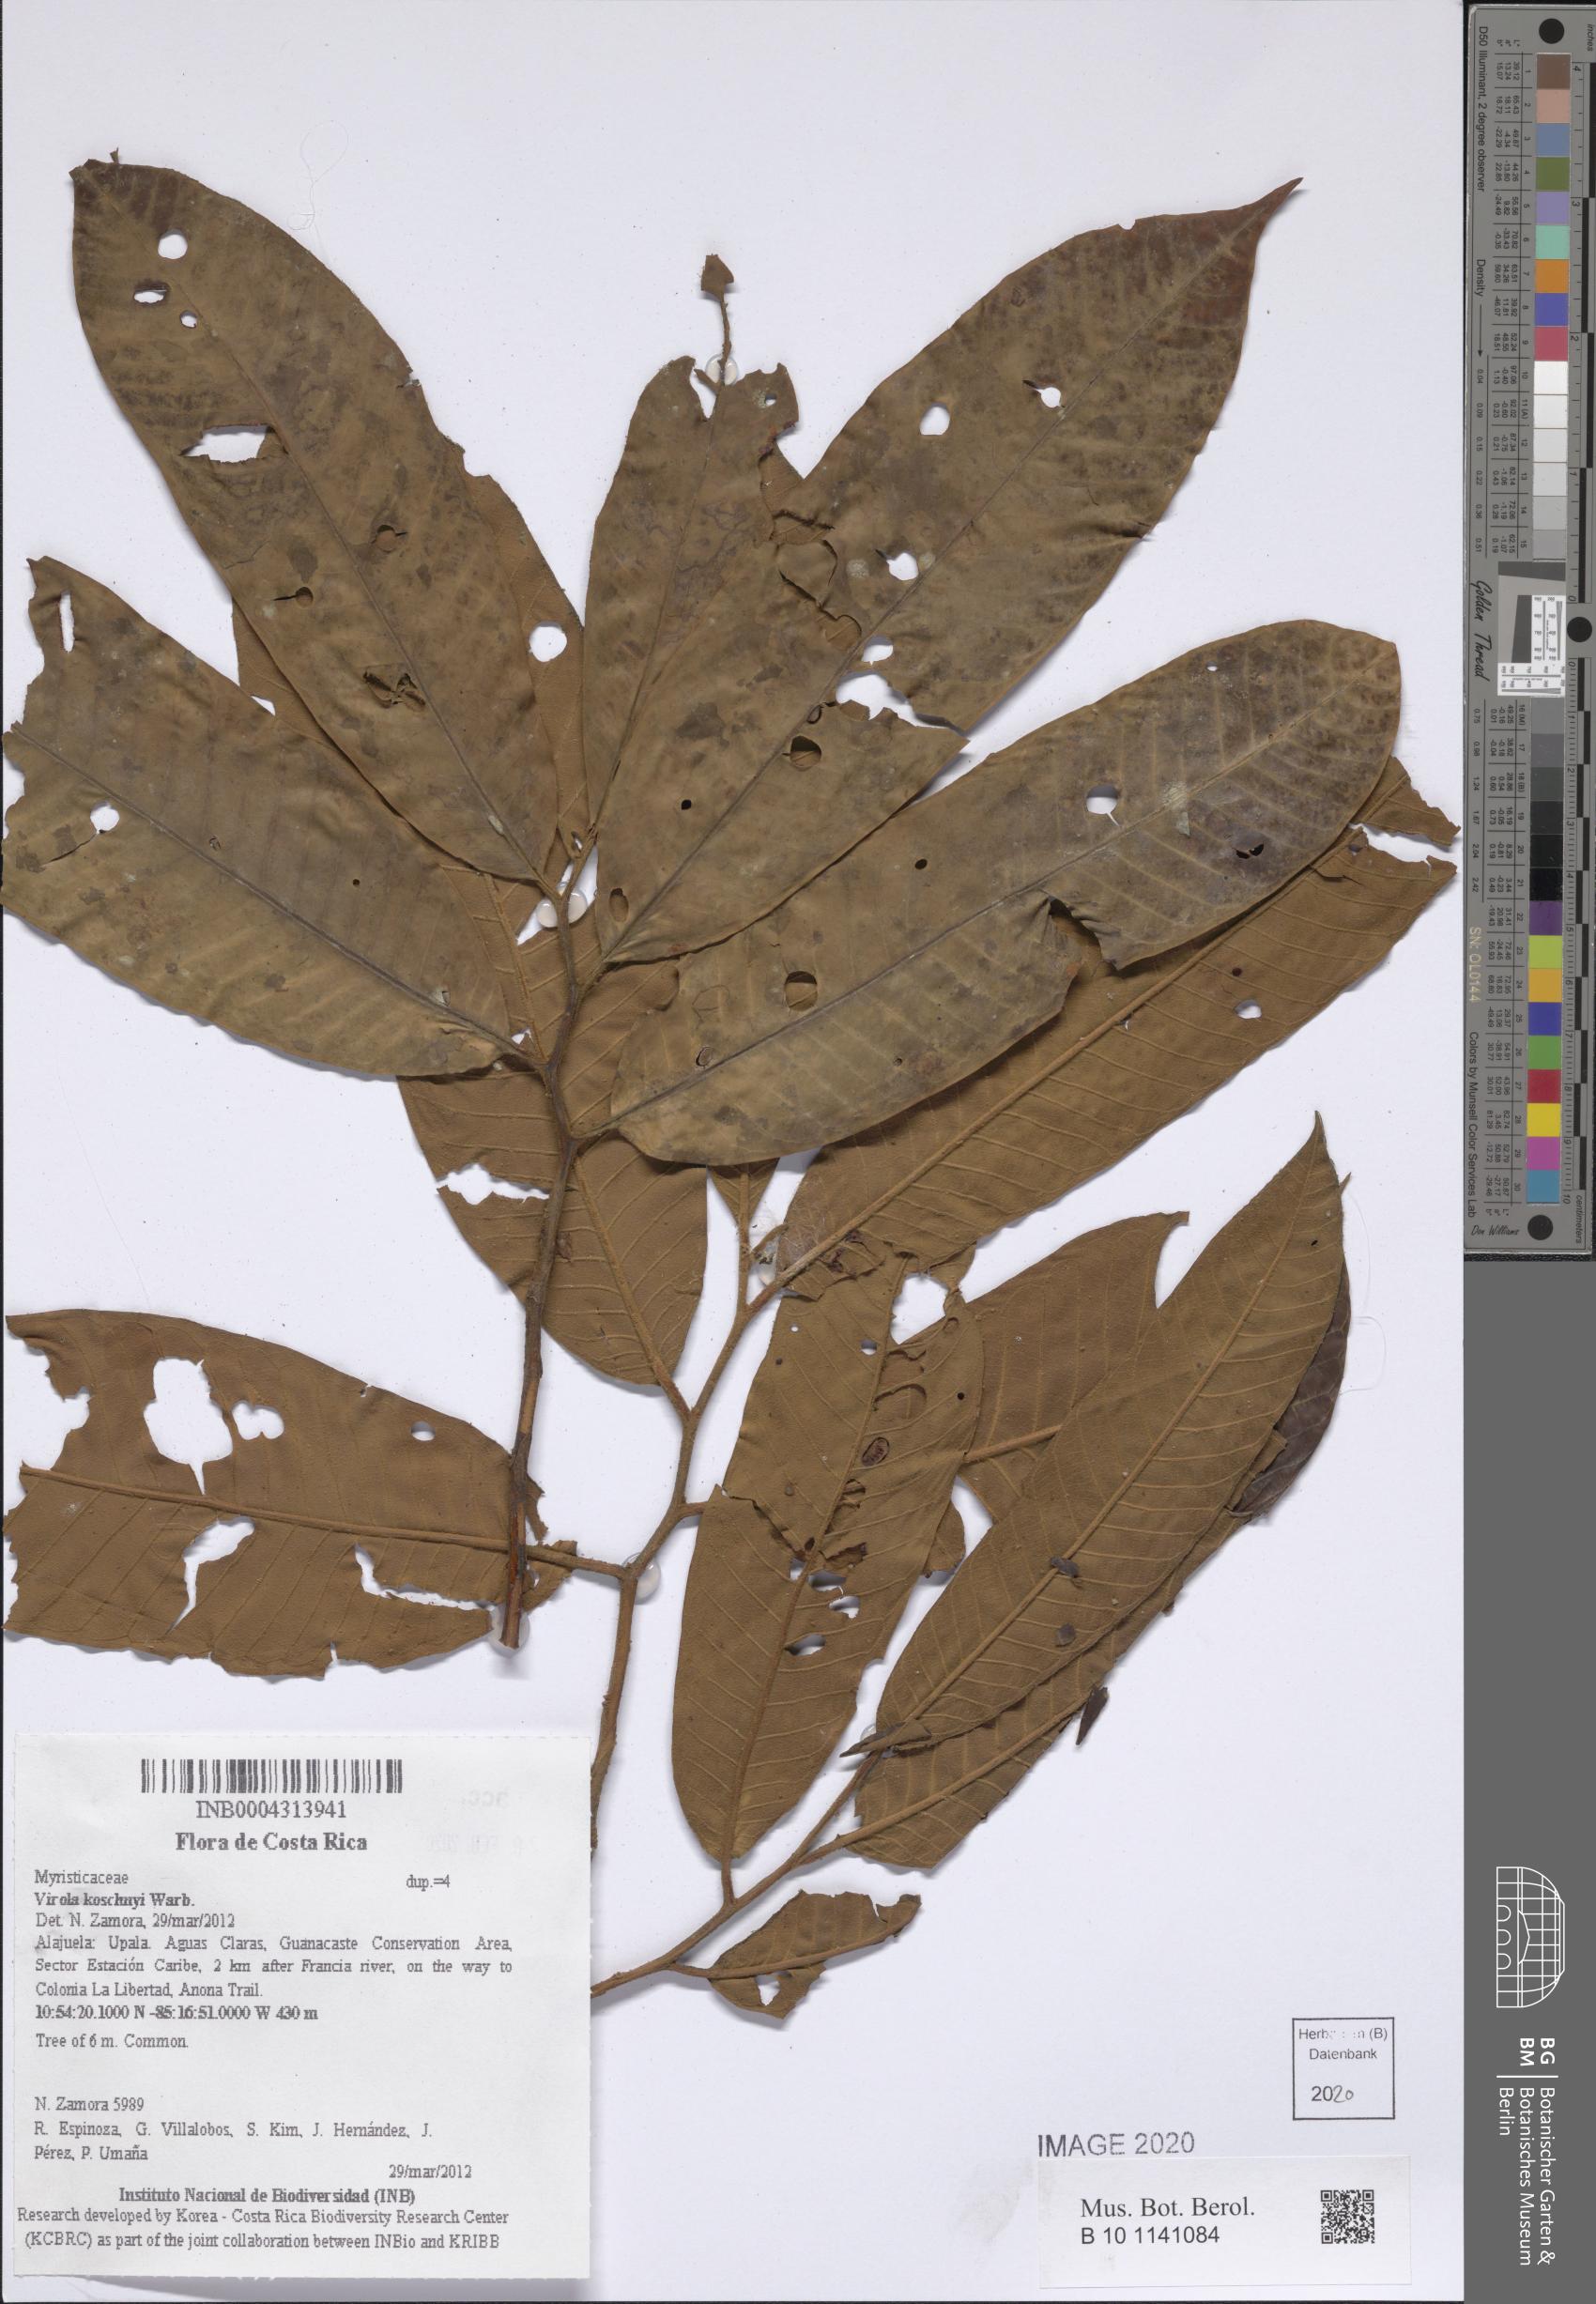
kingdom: Plantae
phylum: Tracheophyta
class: Magnoliopsida
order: Magnoliales
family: Myristicaceae
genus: Virola
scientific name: Virola koschnyi
